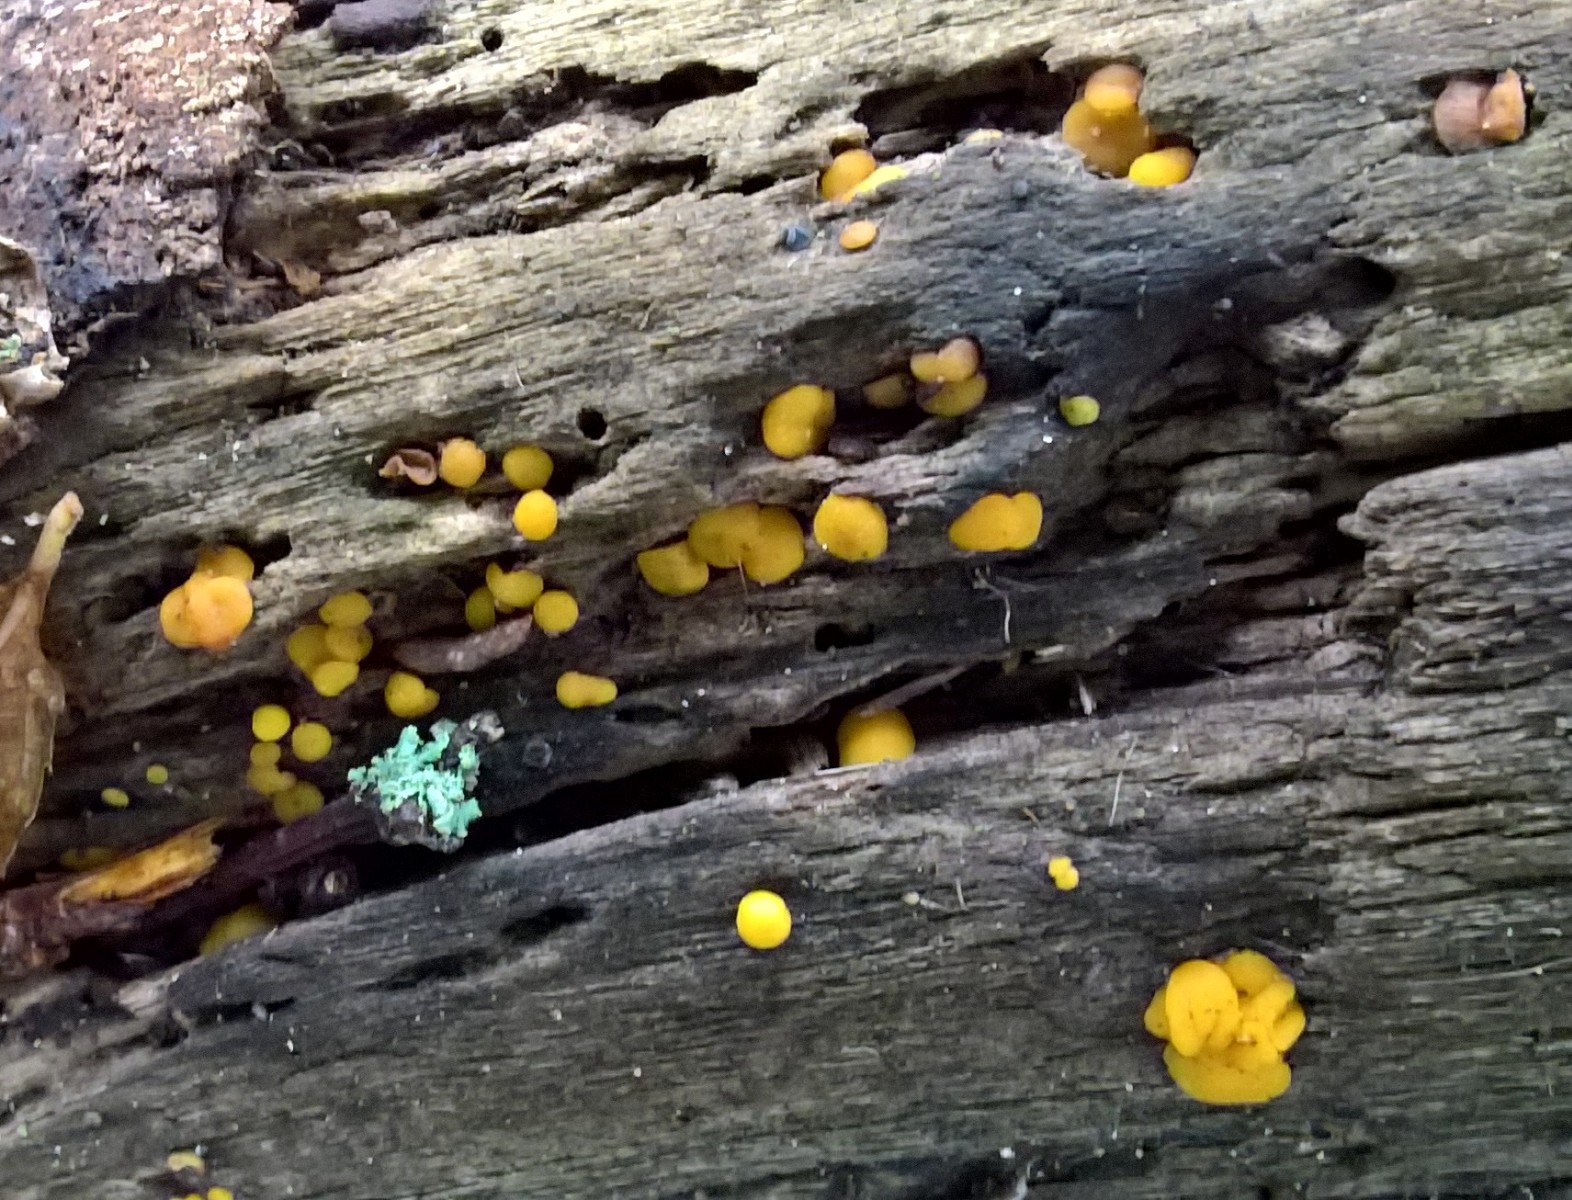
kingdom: Fungi
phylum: Ascomycota
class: Leotiomycetes
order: Helotiales
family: Pezizellaceae
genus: Calycina
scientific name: Calycina citrina
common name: almindelig gulskive
